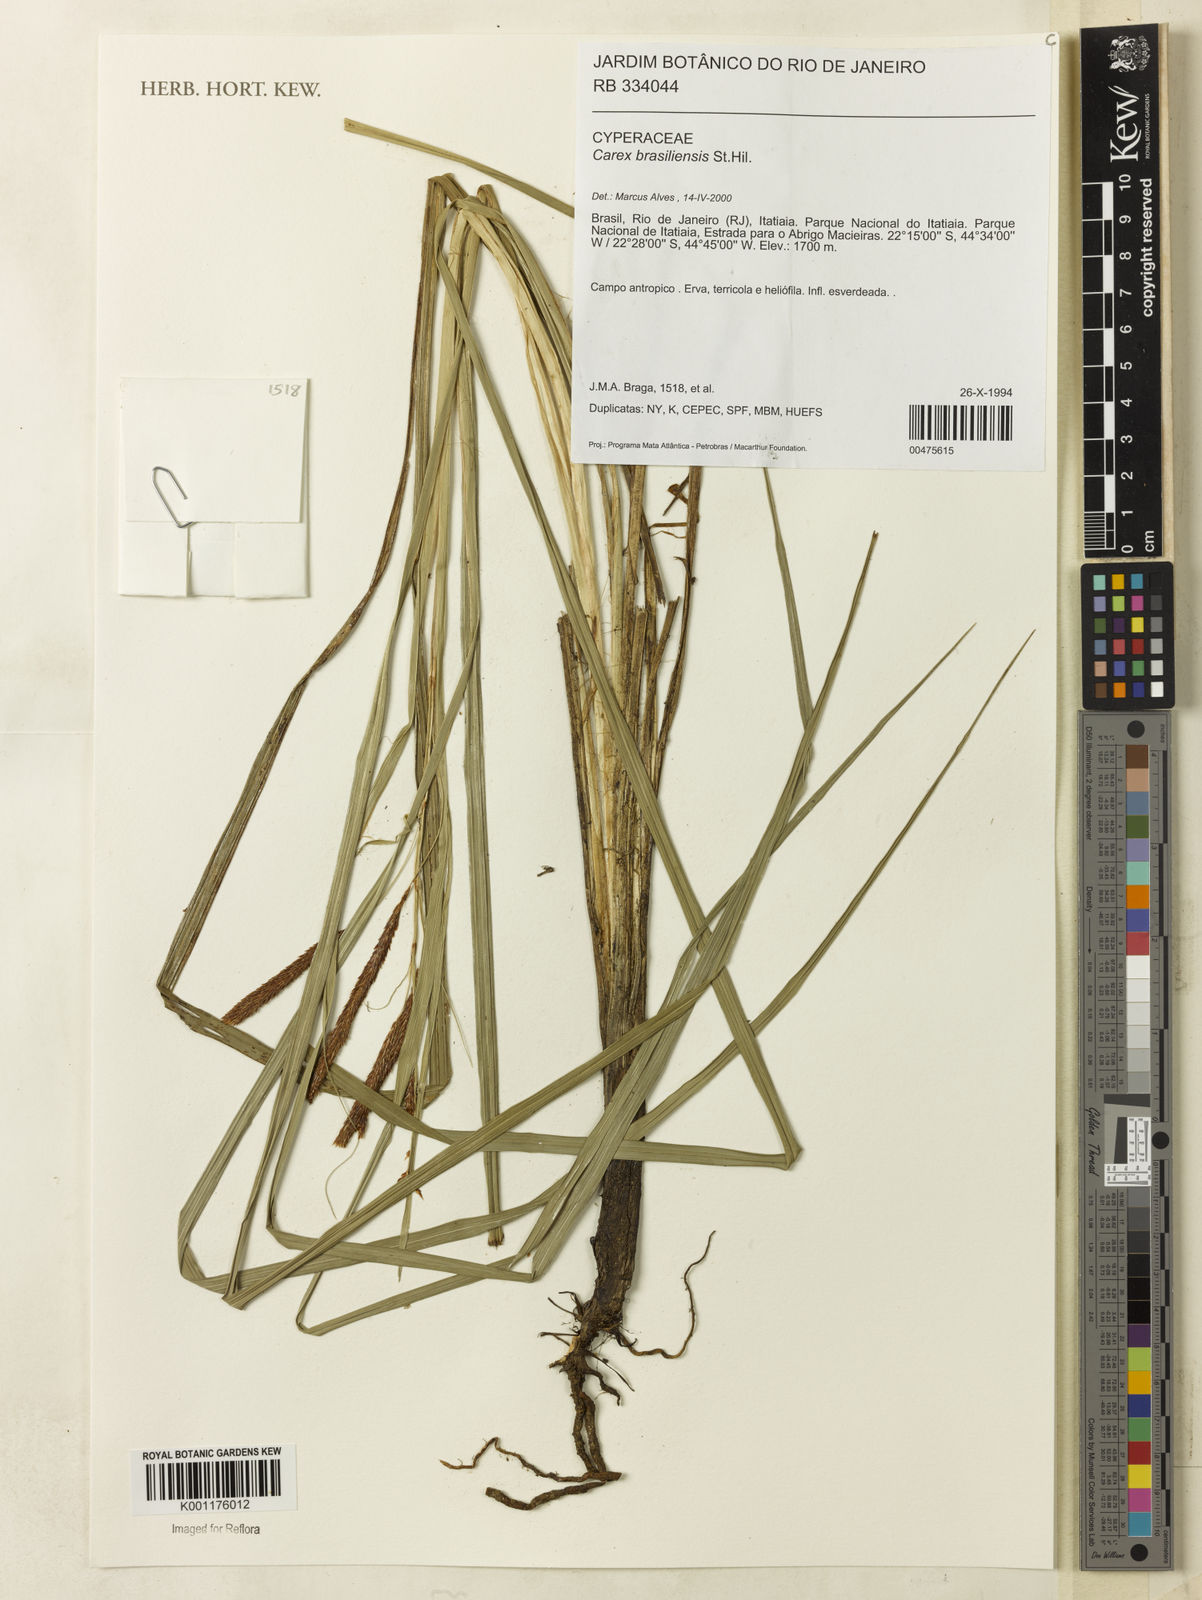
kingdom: Plantae
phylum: Tracheophyta
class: Liliopsida
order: Poales
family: Cyperaceae
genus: Carex
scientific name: Carex brasiliensis
